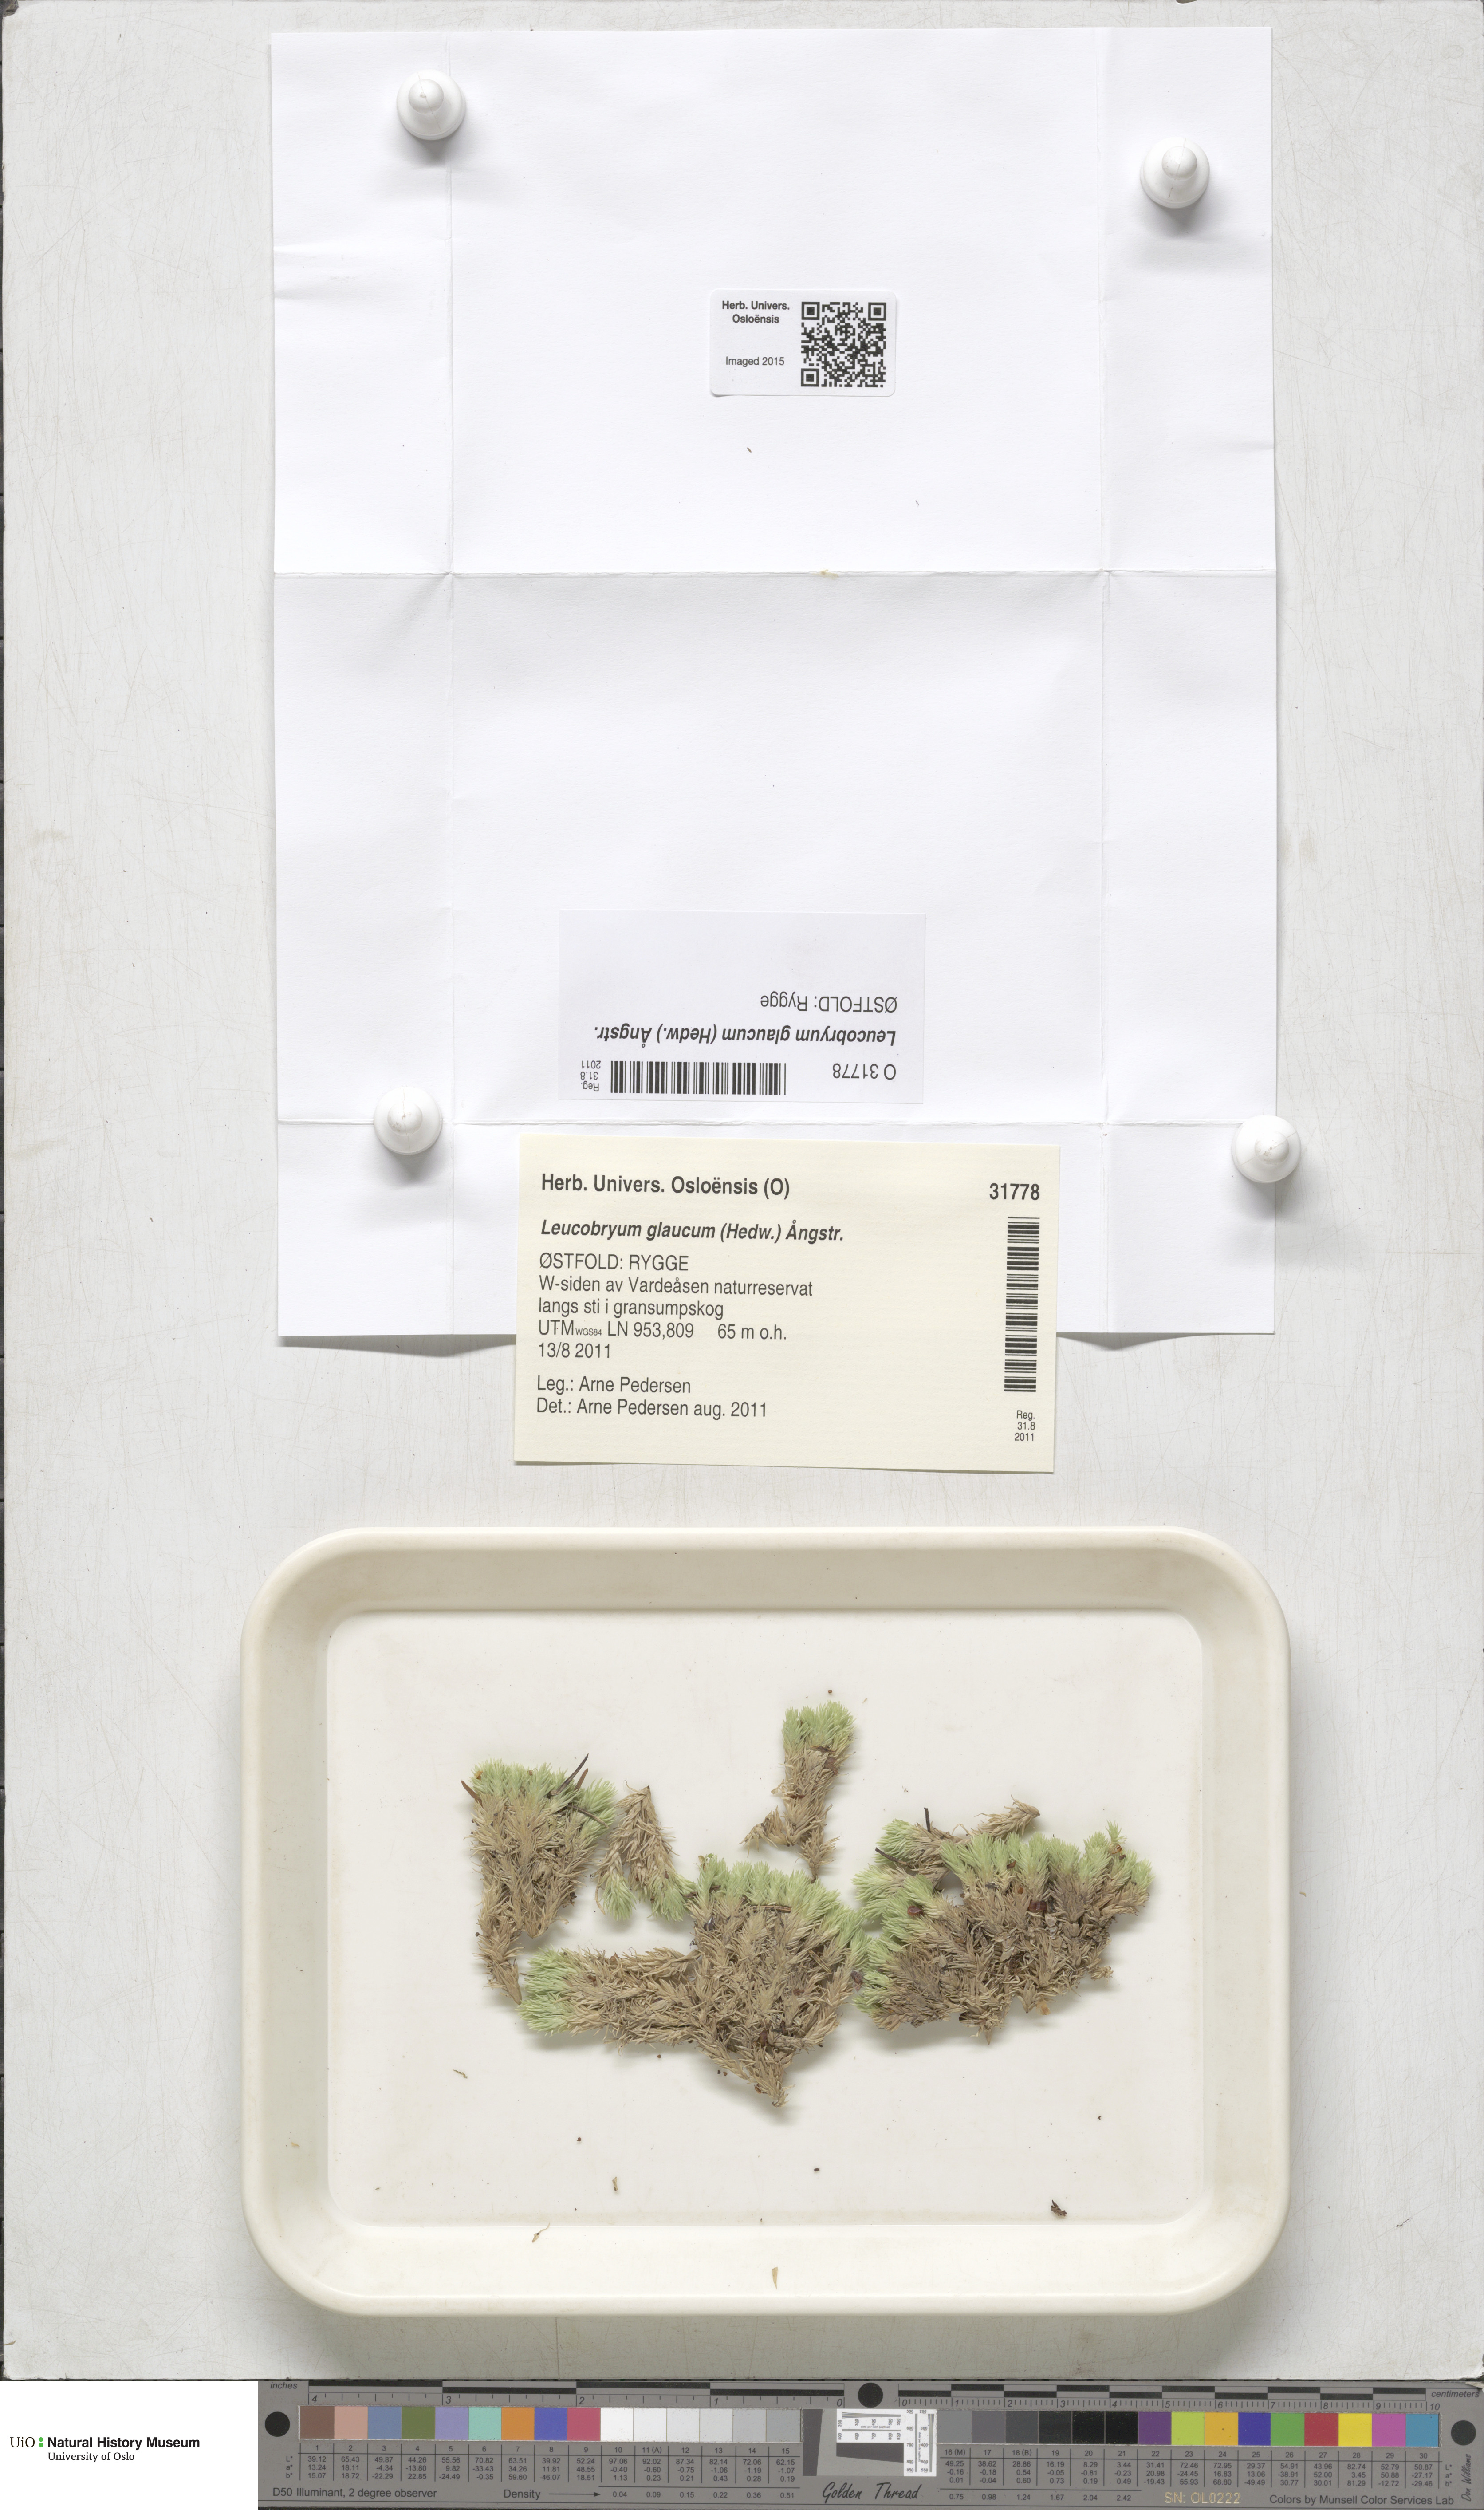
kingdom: Plantae
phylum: Bryophyta
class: Bryopsida
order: Dicranales
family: Leucobryaceae
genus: Leucobryum
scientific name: Leucobryum glaucum
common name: Large white-moss
